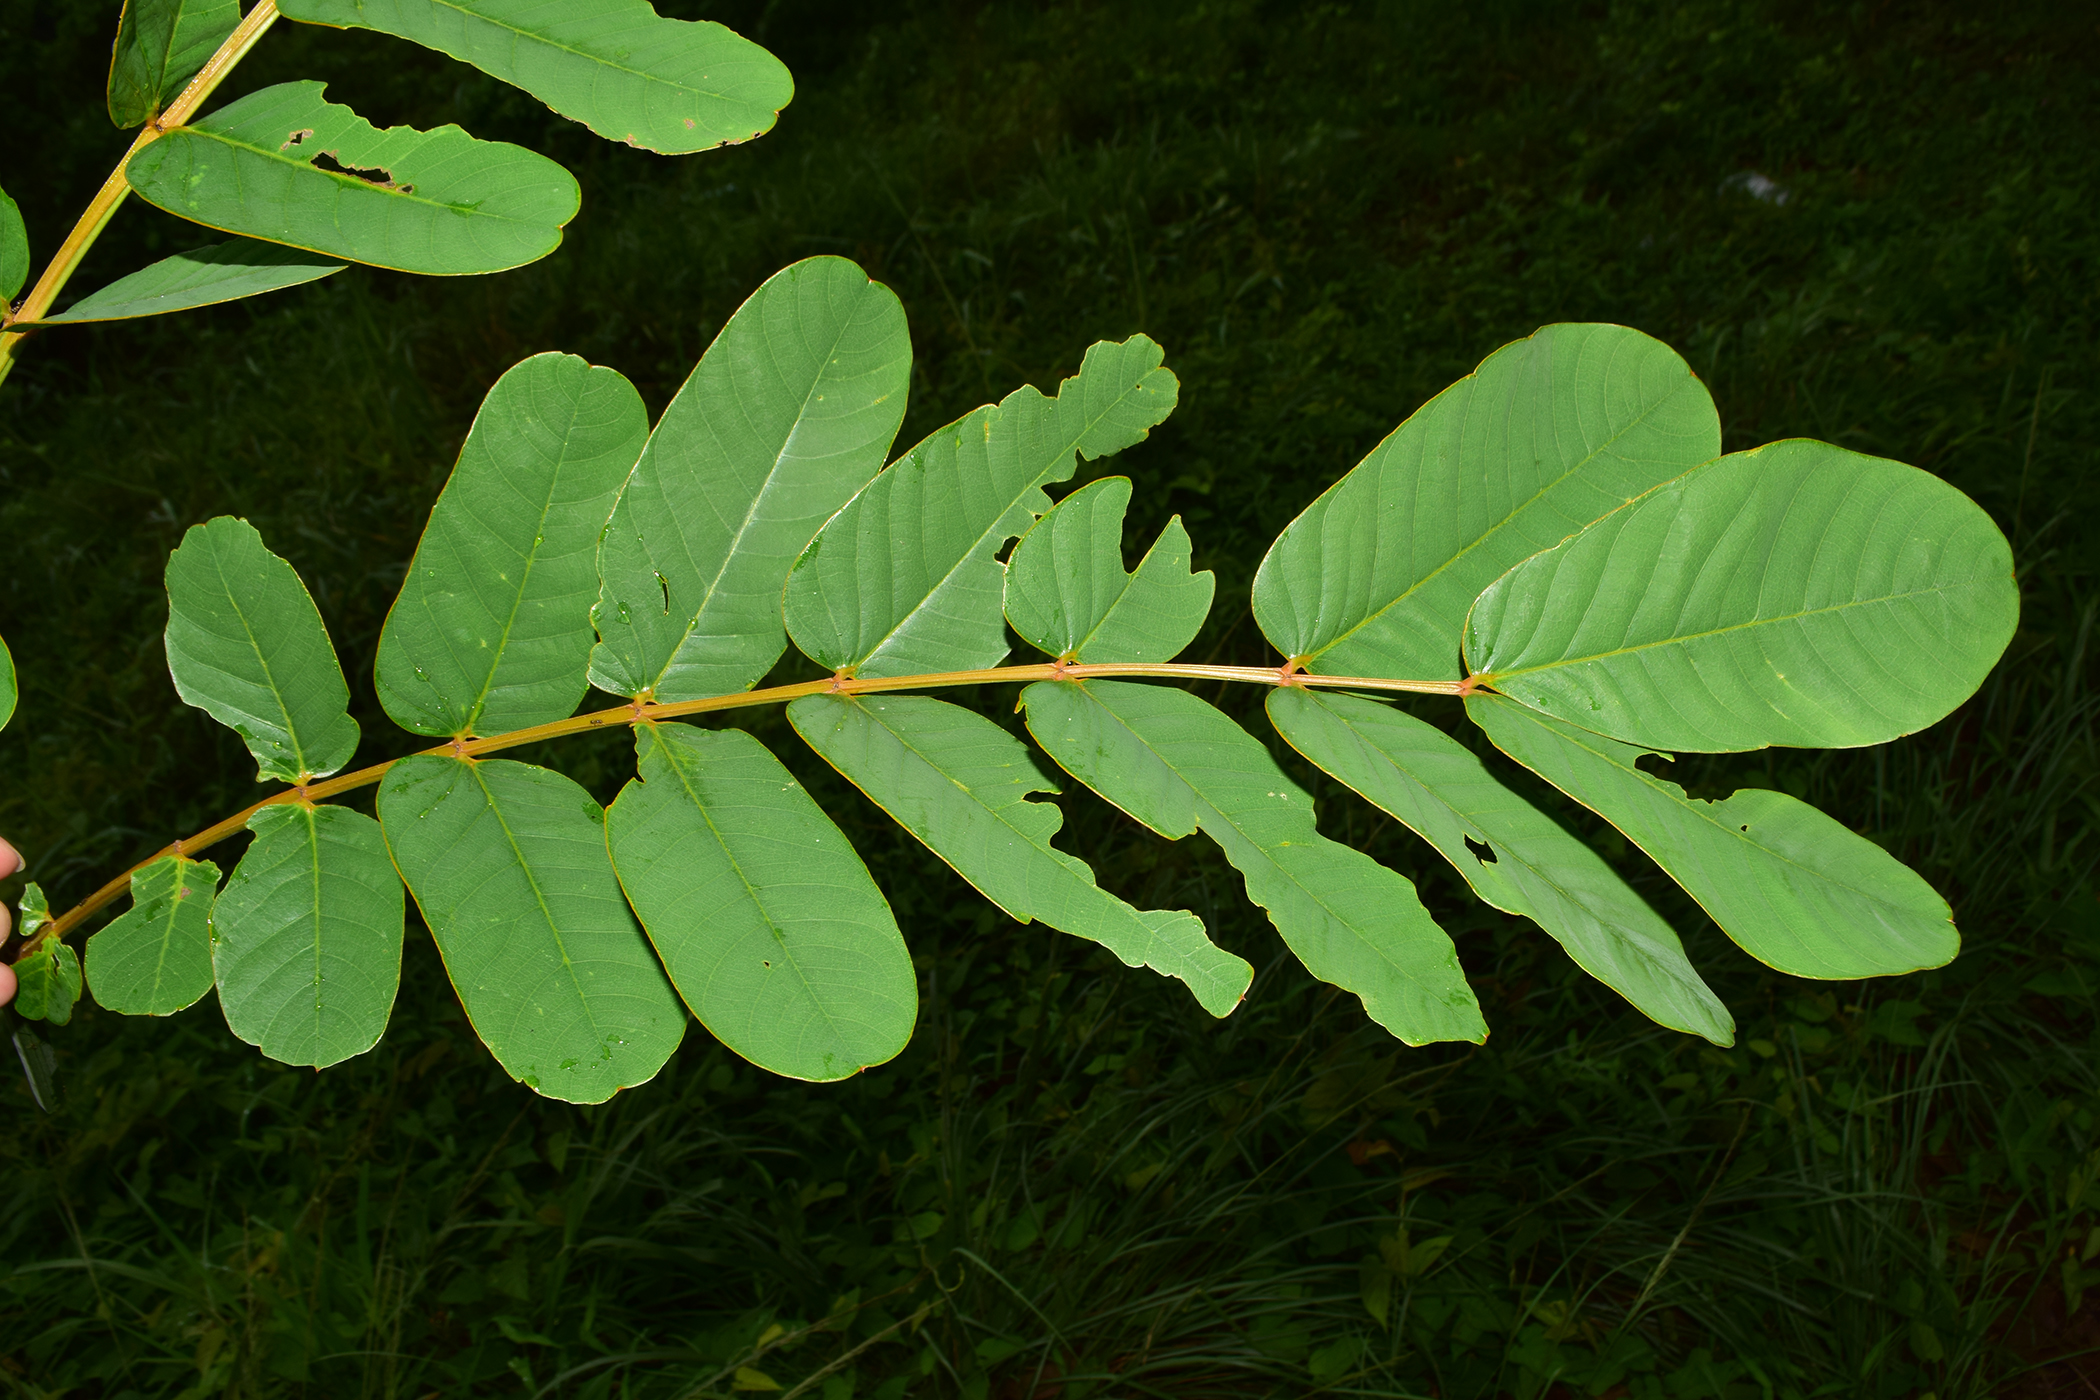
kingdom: Plantae
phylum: Tracheophyta
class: Magnoliopsida
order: Fabales
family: Fabaceae
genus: Senna
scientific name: Senna alata
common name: Emperor's candlesticks
